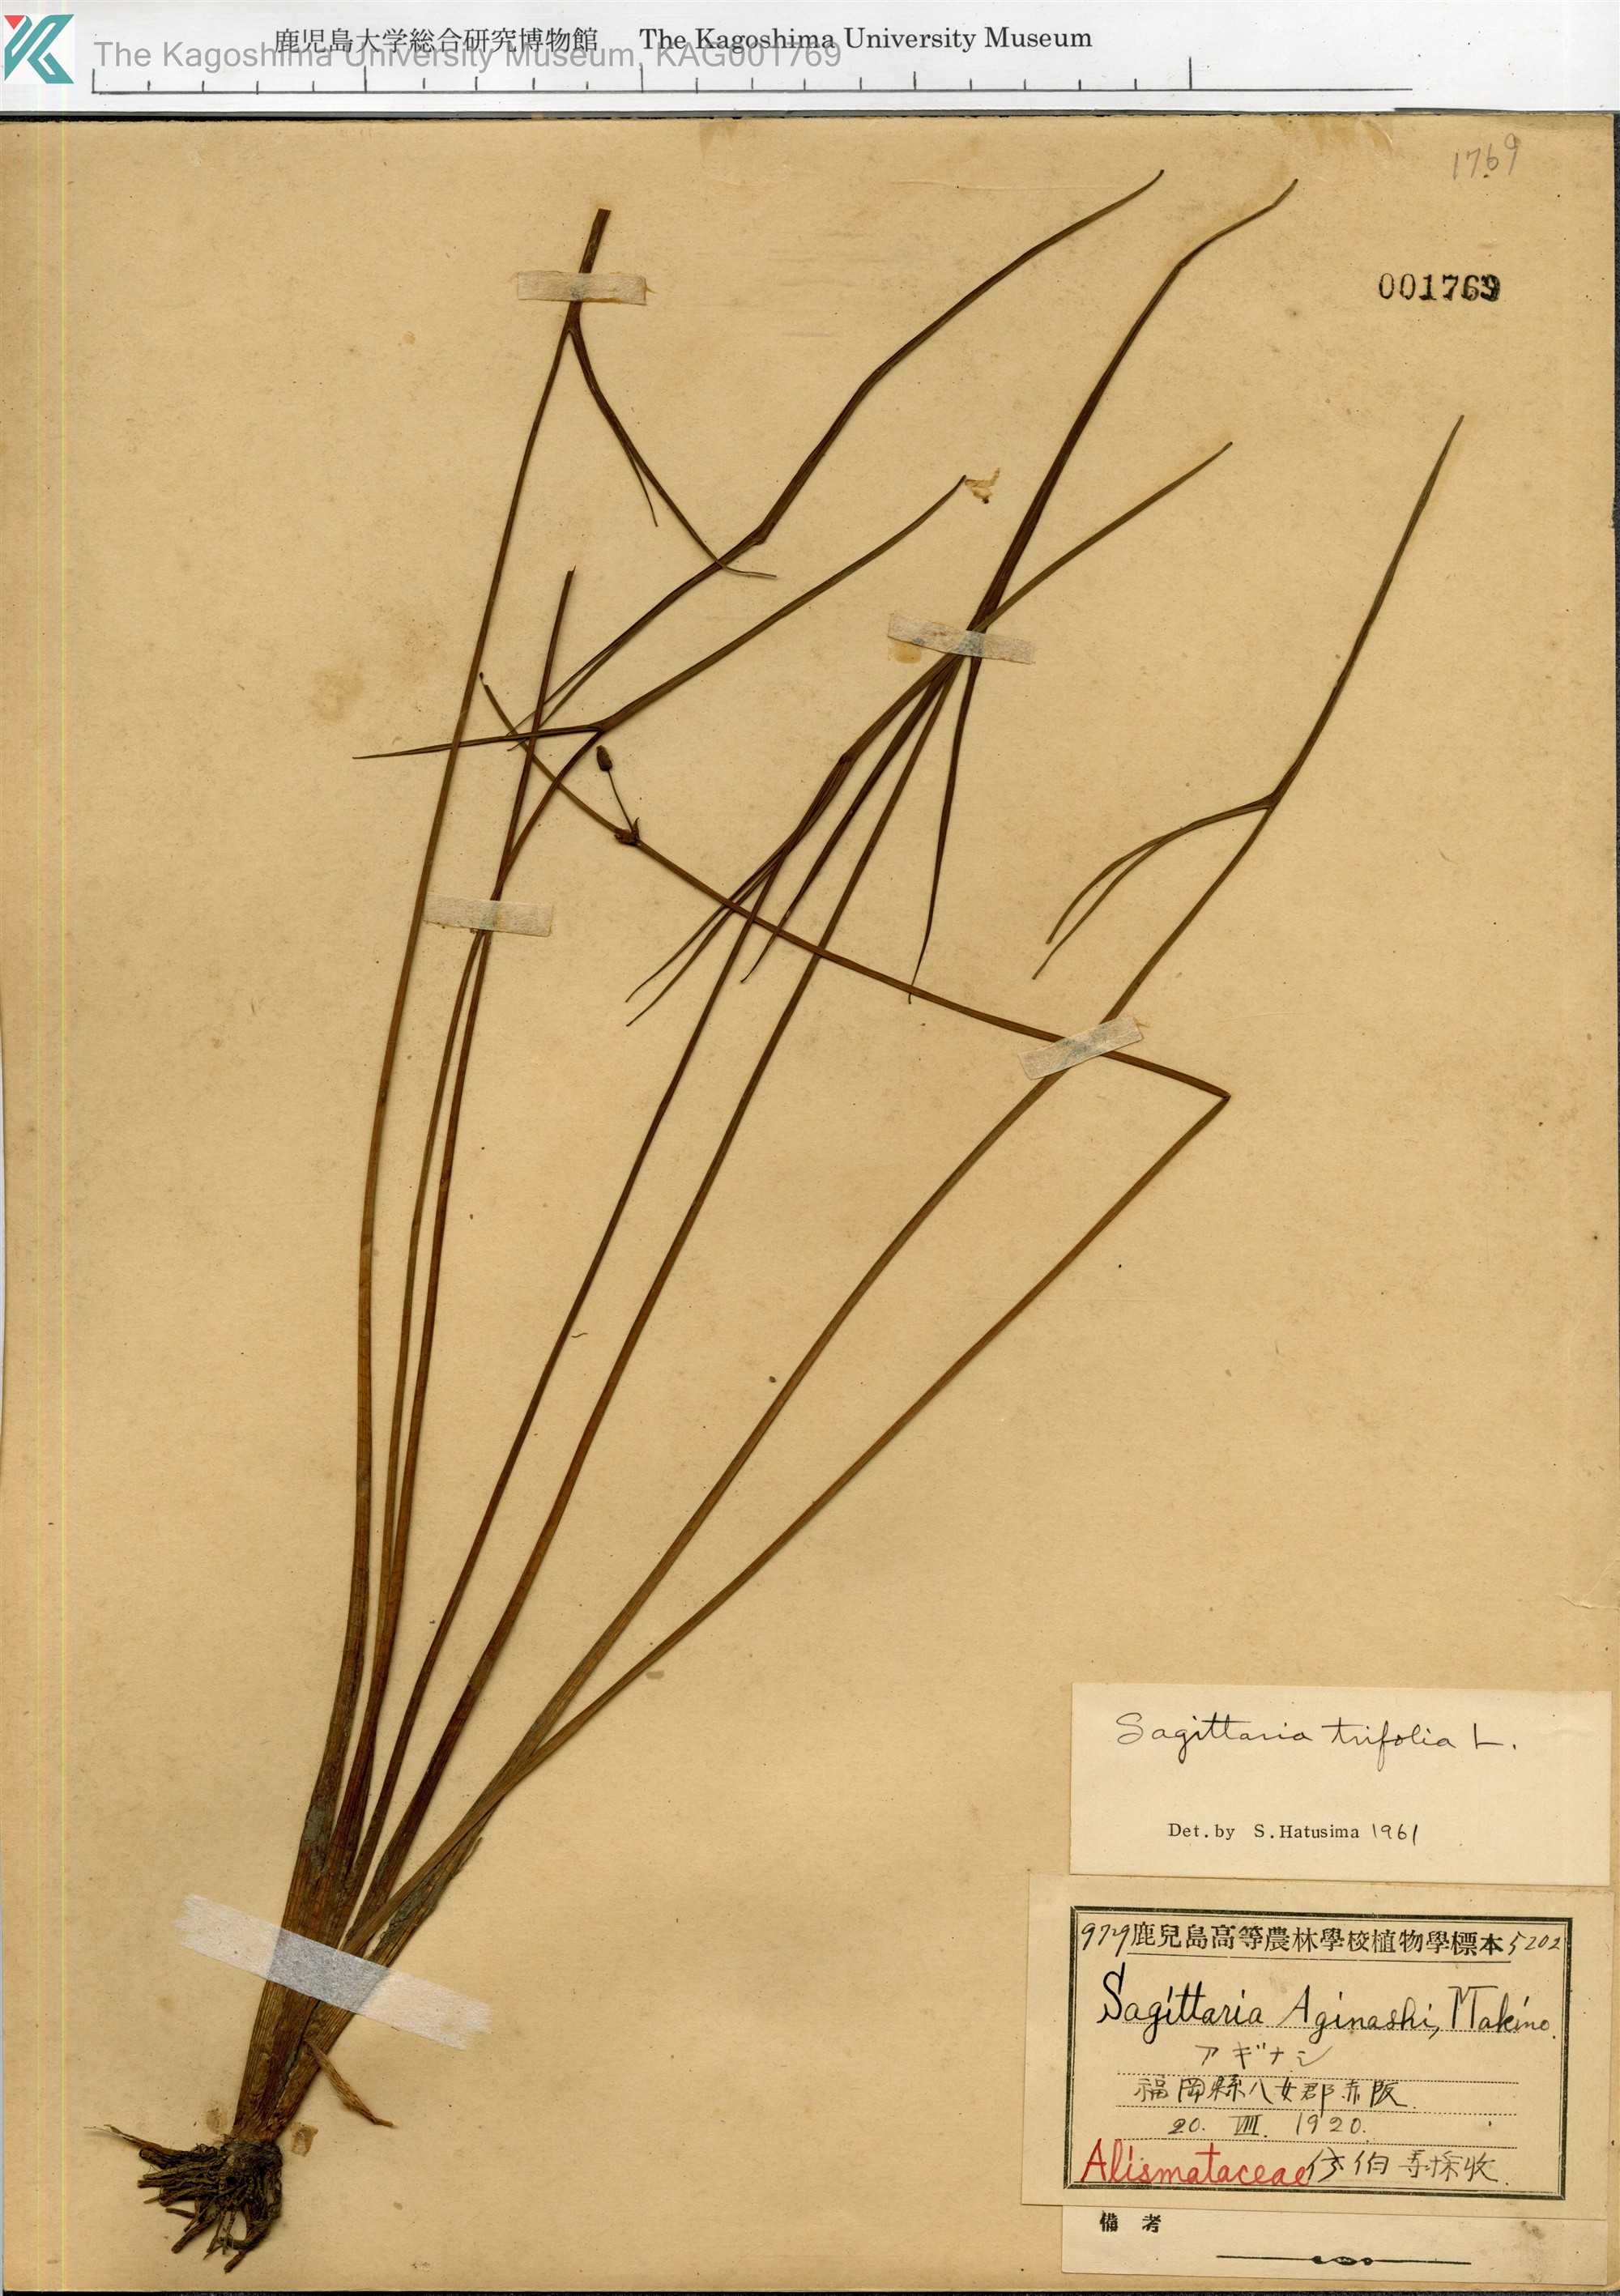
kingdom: Plantae
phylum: Tracheophyta
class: Liliopsida
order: Alismatales
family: Alismataceae
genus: Sagittaria
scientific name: Sagittaria trifolia
